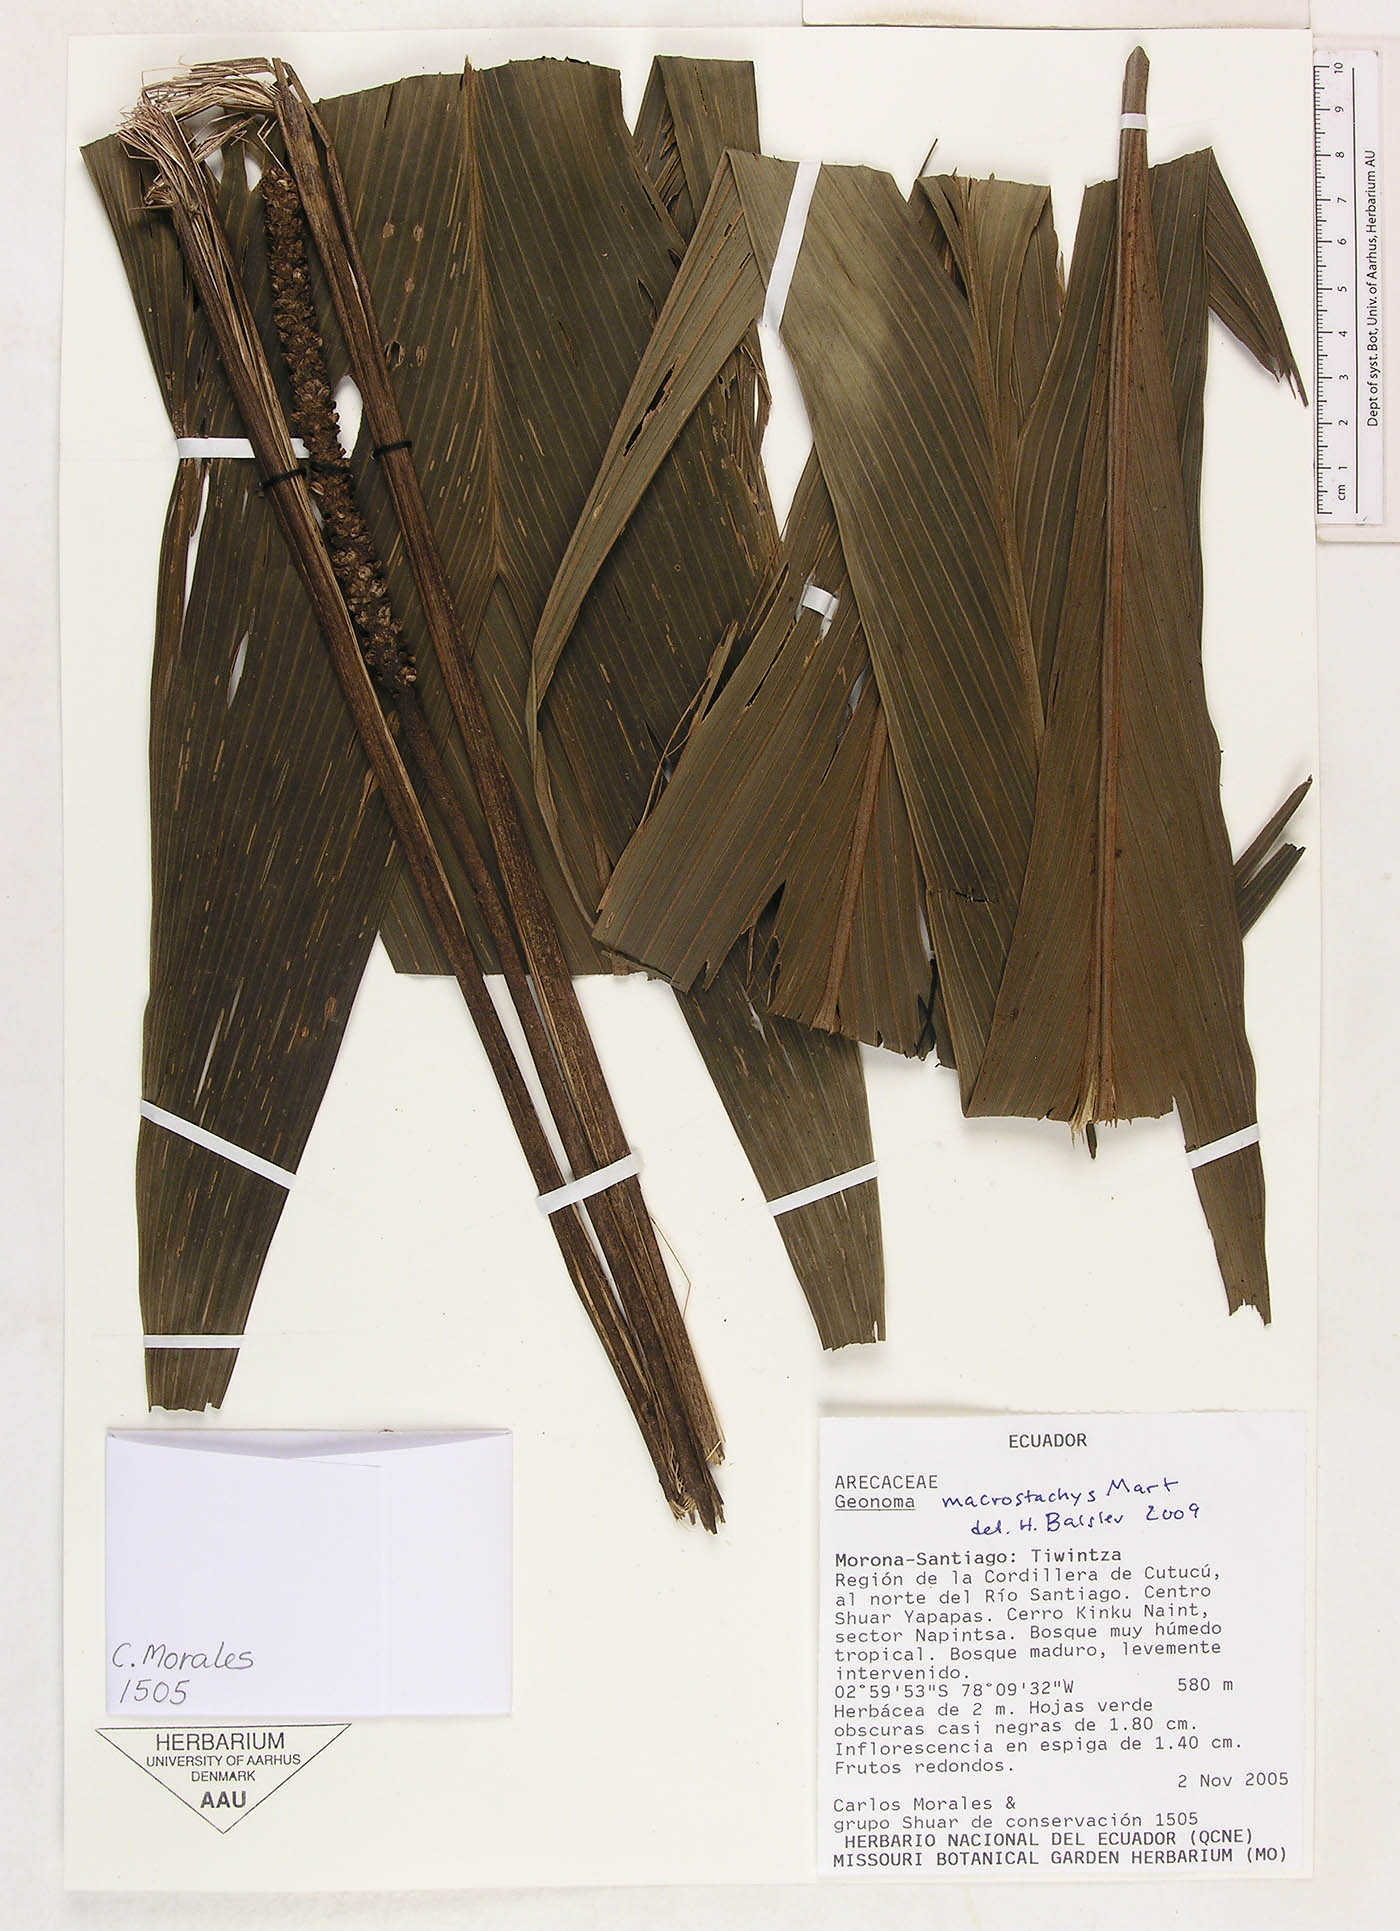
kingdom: Plantae
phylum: Tracheophyta
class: Liliopsida
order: Arecales
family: Arecaceae
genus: Geonoma
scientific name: Geonoma macrostachys
